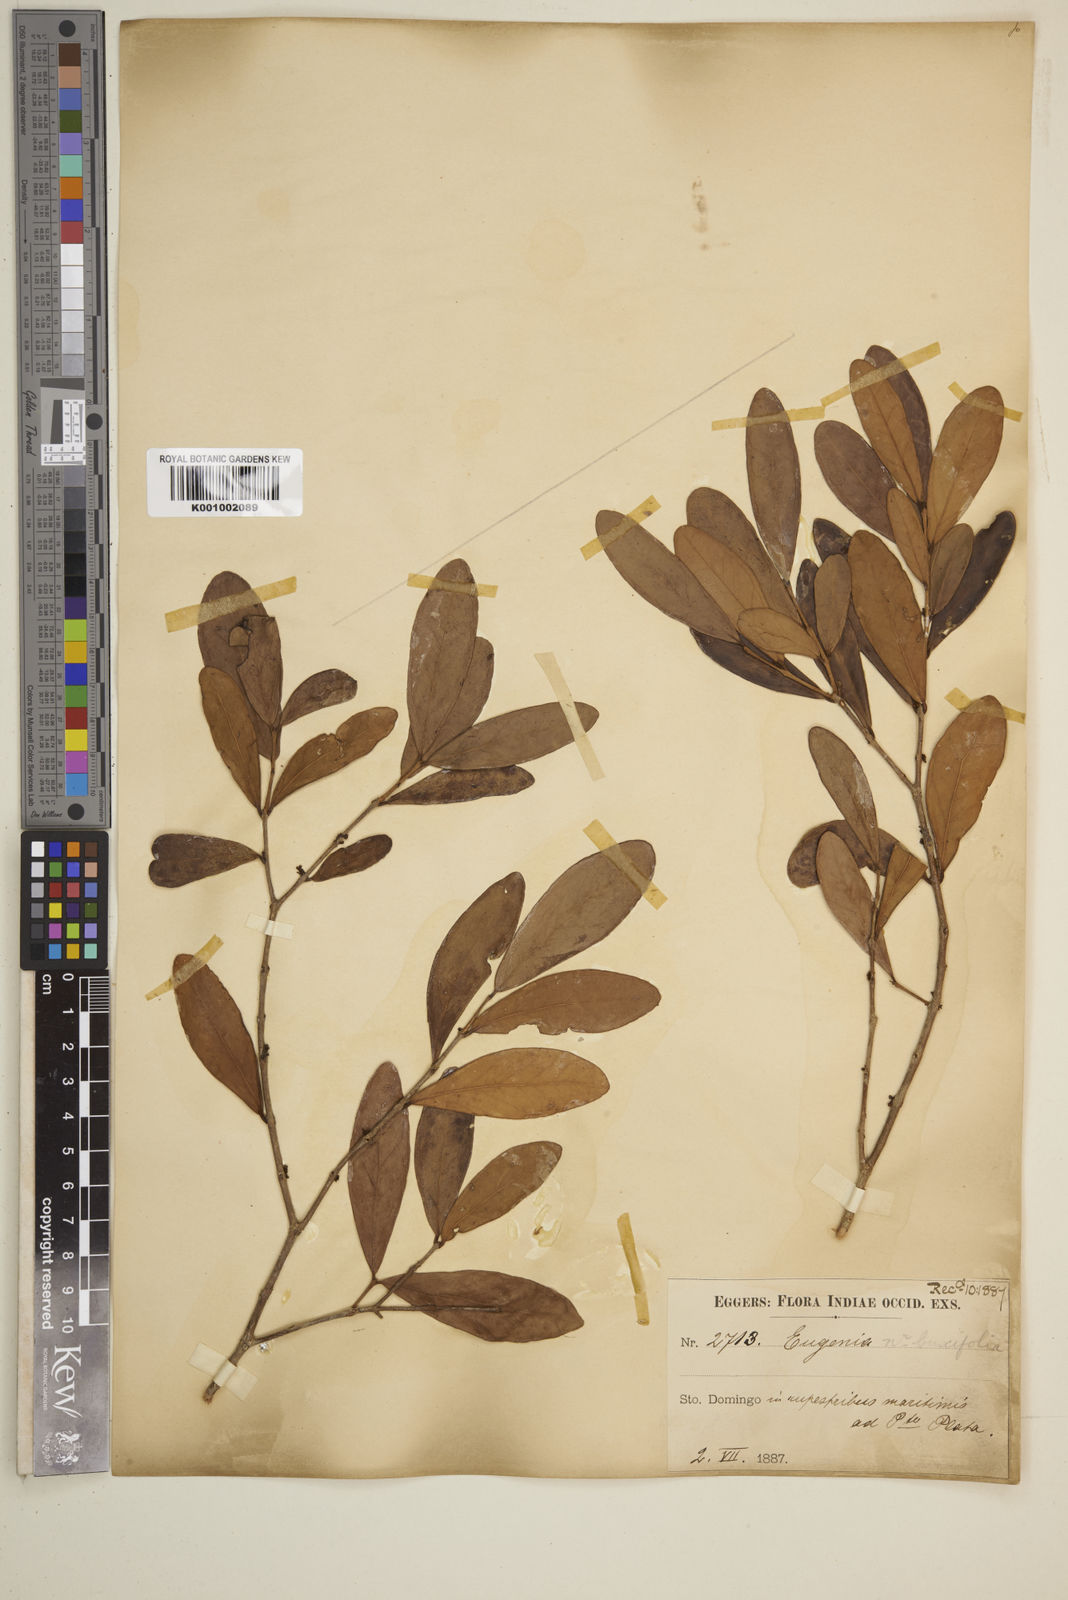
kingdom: Plantae
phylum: Tracheophyta
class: Magnoliopsida
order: Myrtales
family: Myrtaceae
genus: Eugenia
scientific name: Eugenia buxifolia
